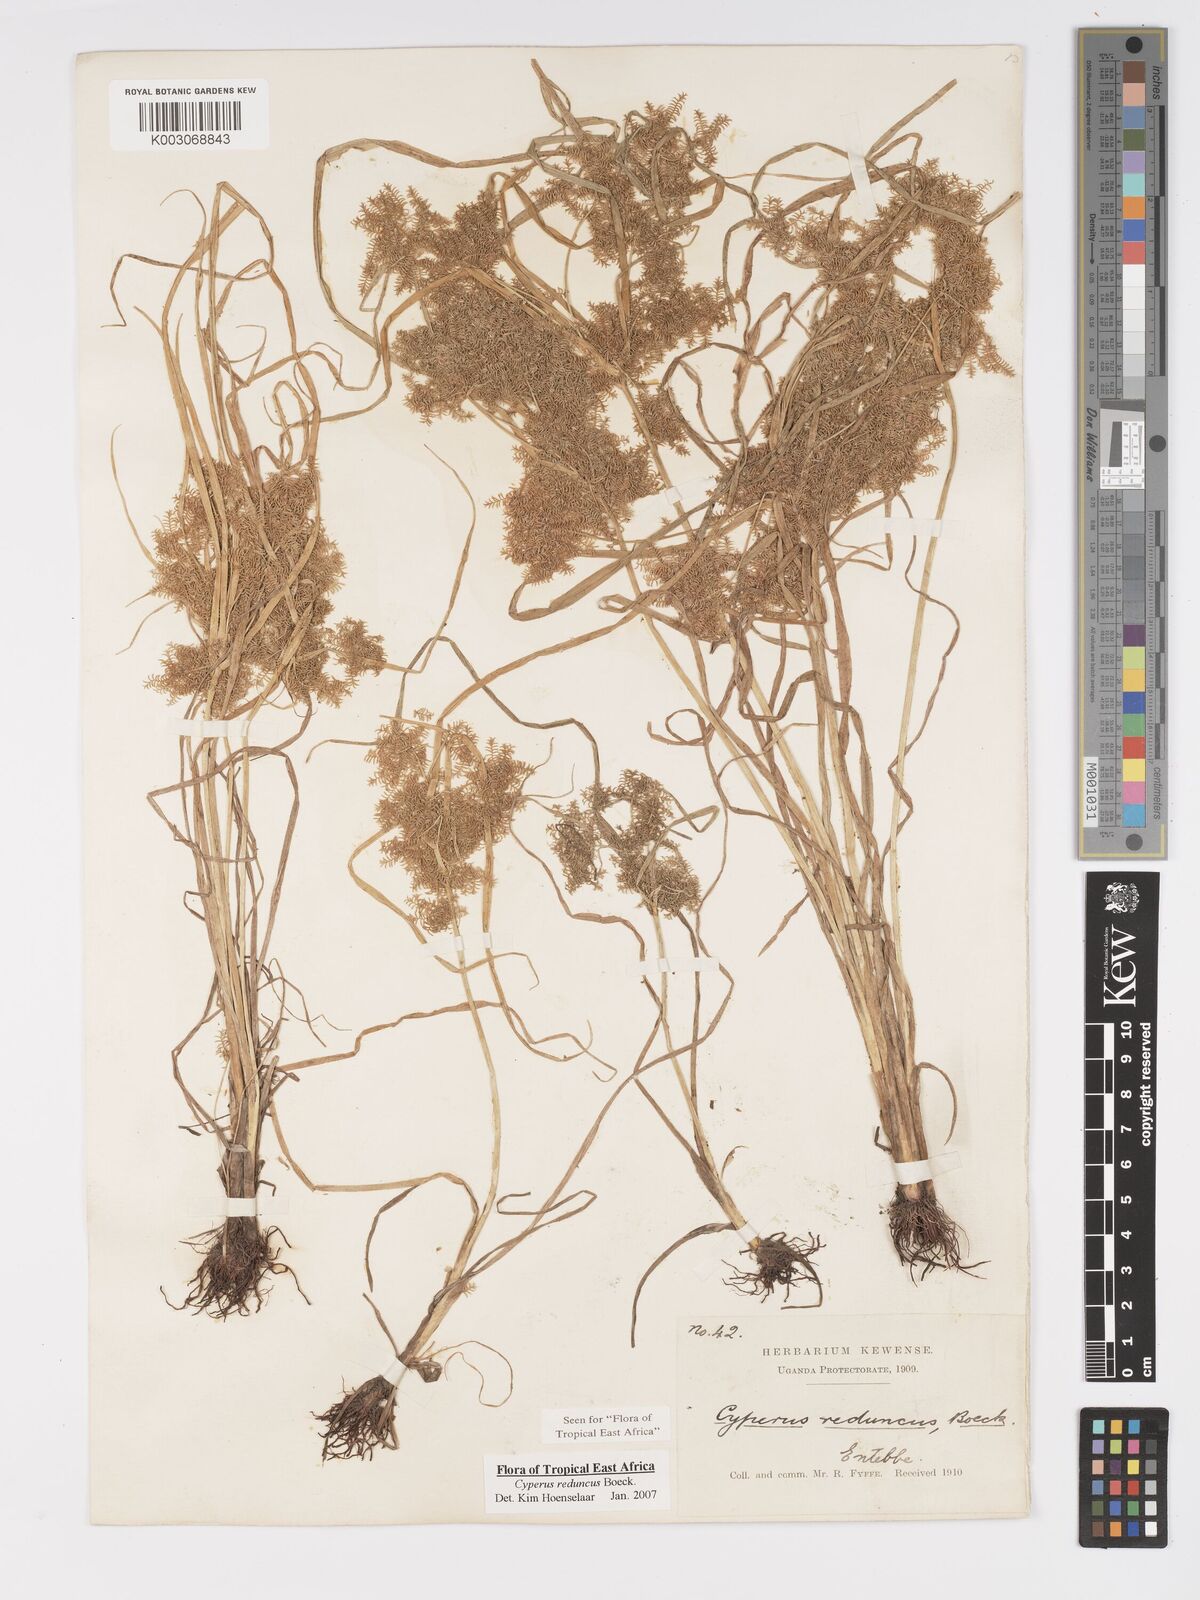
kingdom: Plantae
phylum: Tracheophyta
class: Liliopsida
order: Poales
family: Cyperaceae
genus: Cyperus
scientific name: Cyperus reduncus
